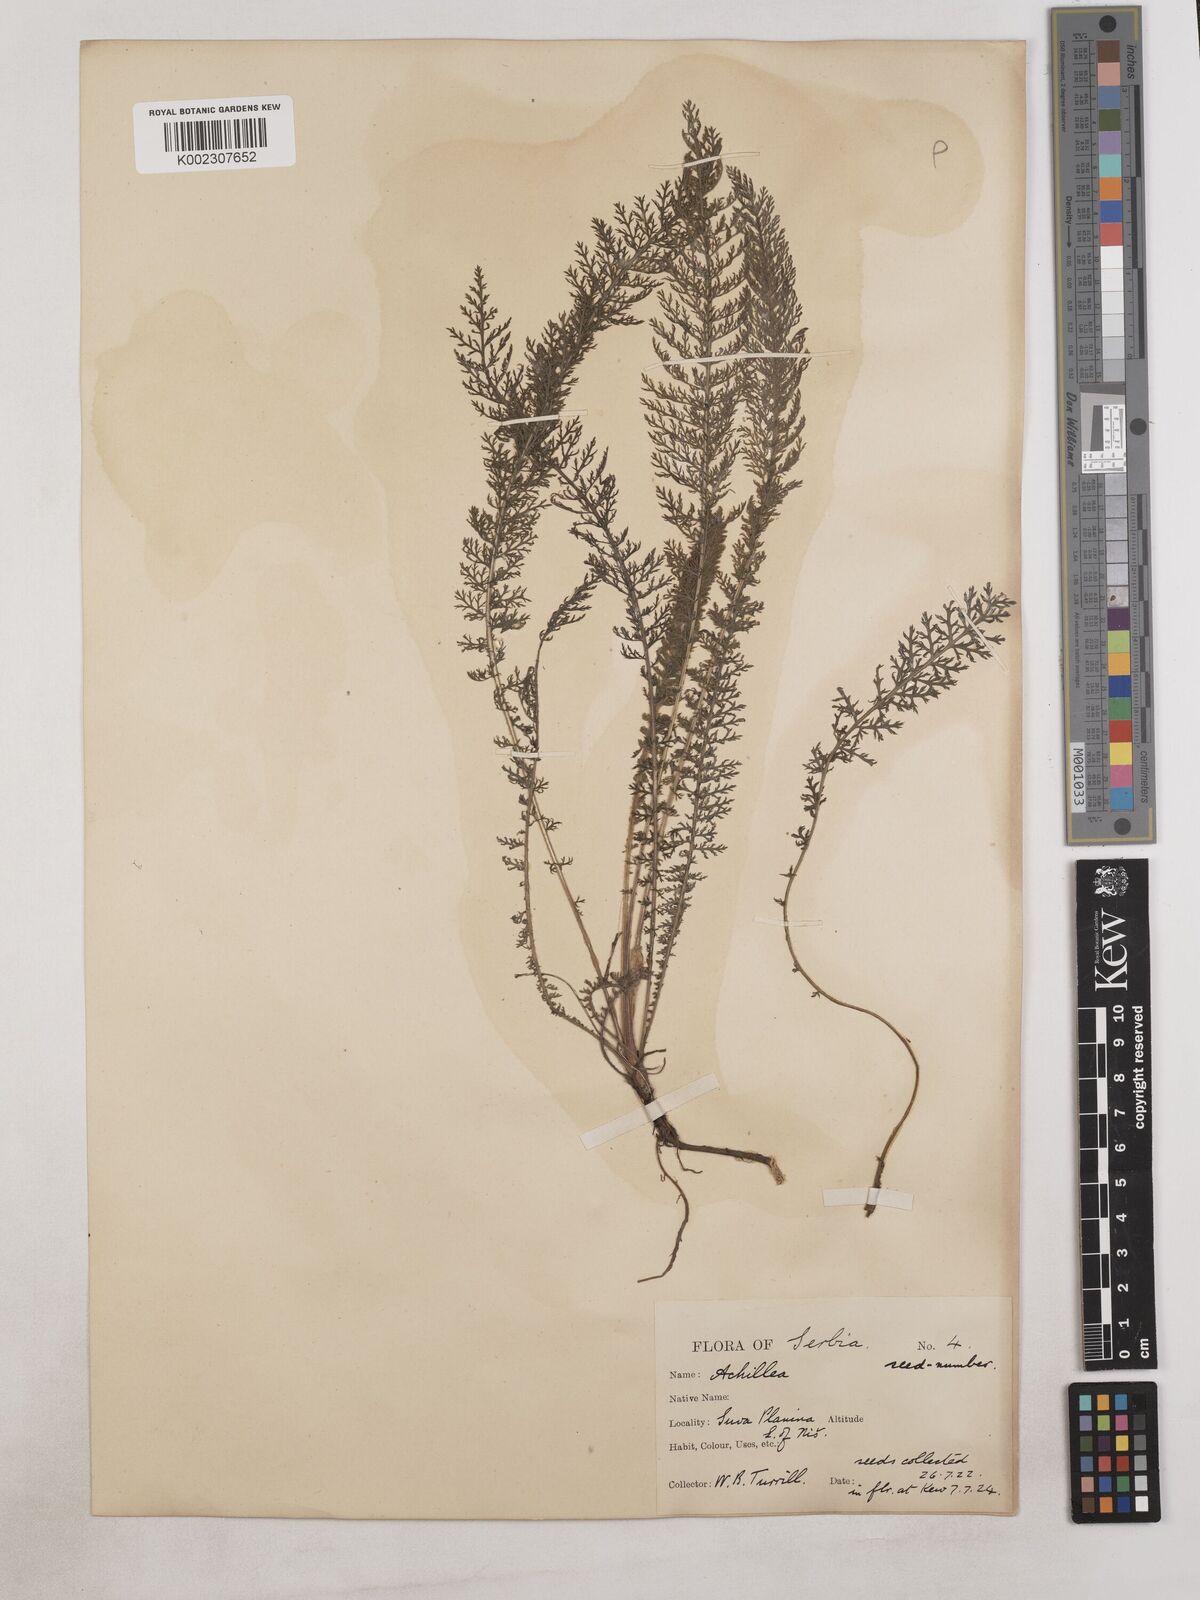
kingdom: Plantae
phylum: Tracheophyta
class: Magnoliopsida
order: Asterales
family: Asteraceae
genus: Achillea
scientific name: Achillea
